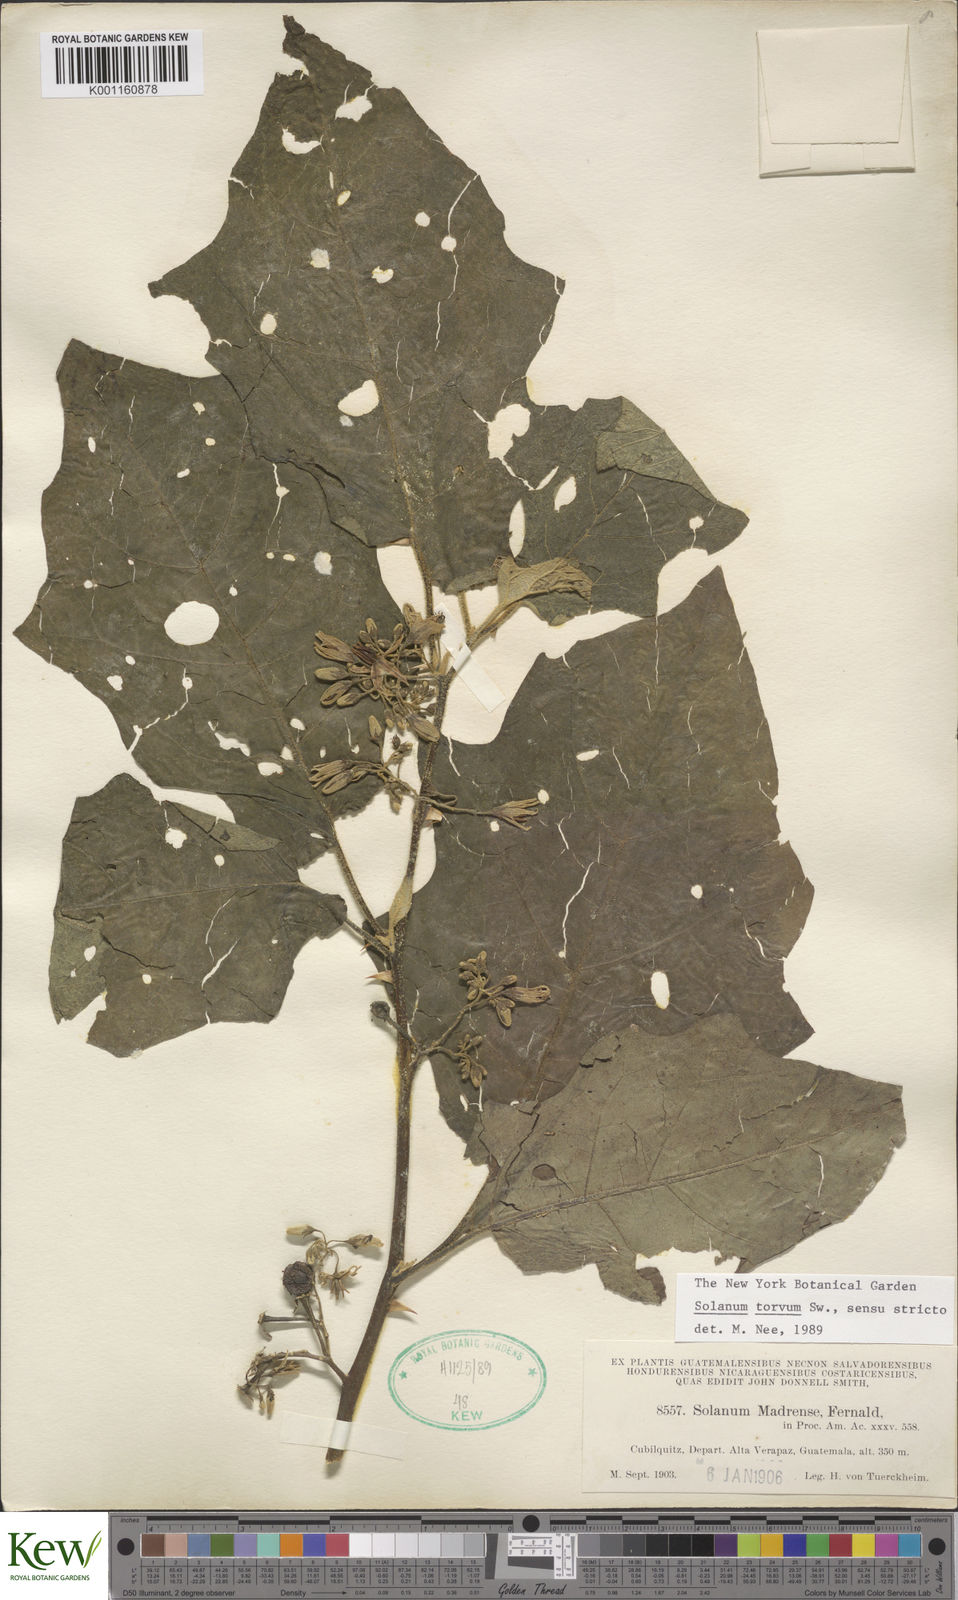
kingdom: Plantae
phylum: Tracheophyta
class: Magnoliopsida
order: Solanales
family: Solanaceae
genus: Solanum
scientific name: Solanum torvum
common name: Turkey berry
